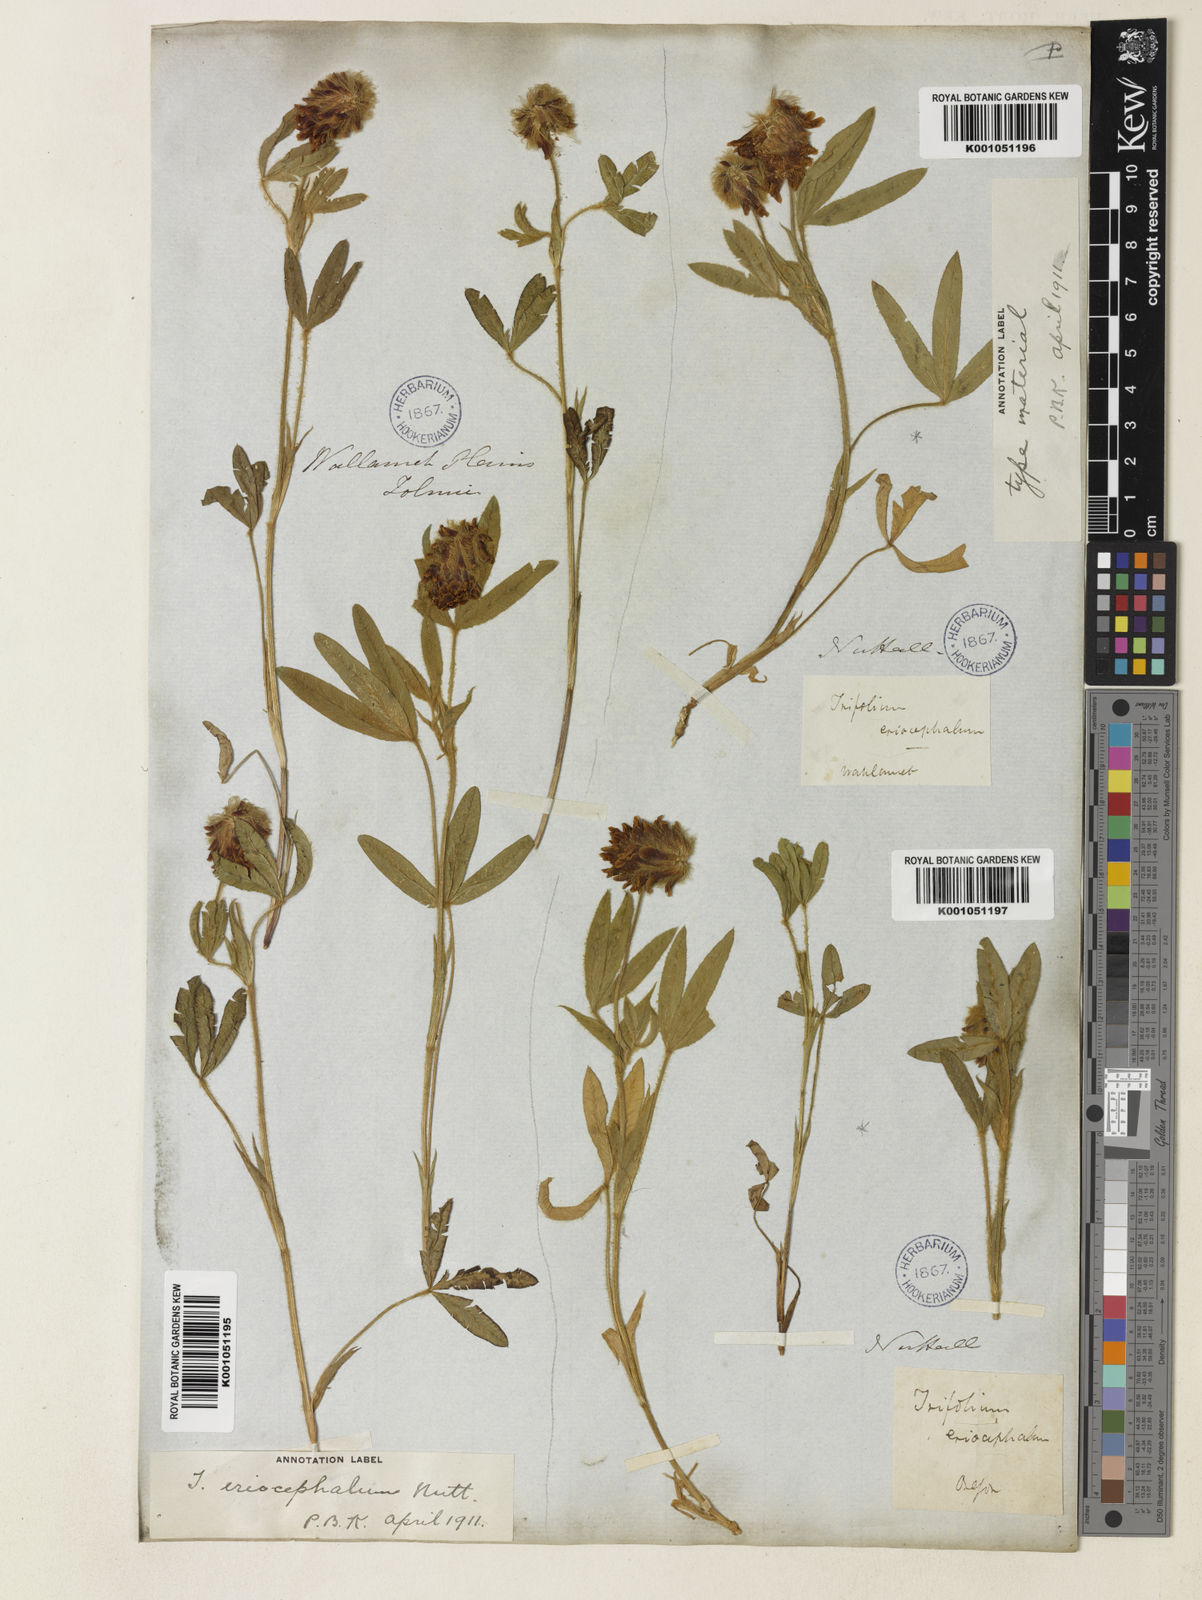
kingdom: Plantae
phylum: Tracheophyta
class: Magnoliopsida
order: Fabales
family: Fabaceae
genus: Trifolium
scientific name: Trifolium eriocephalum
